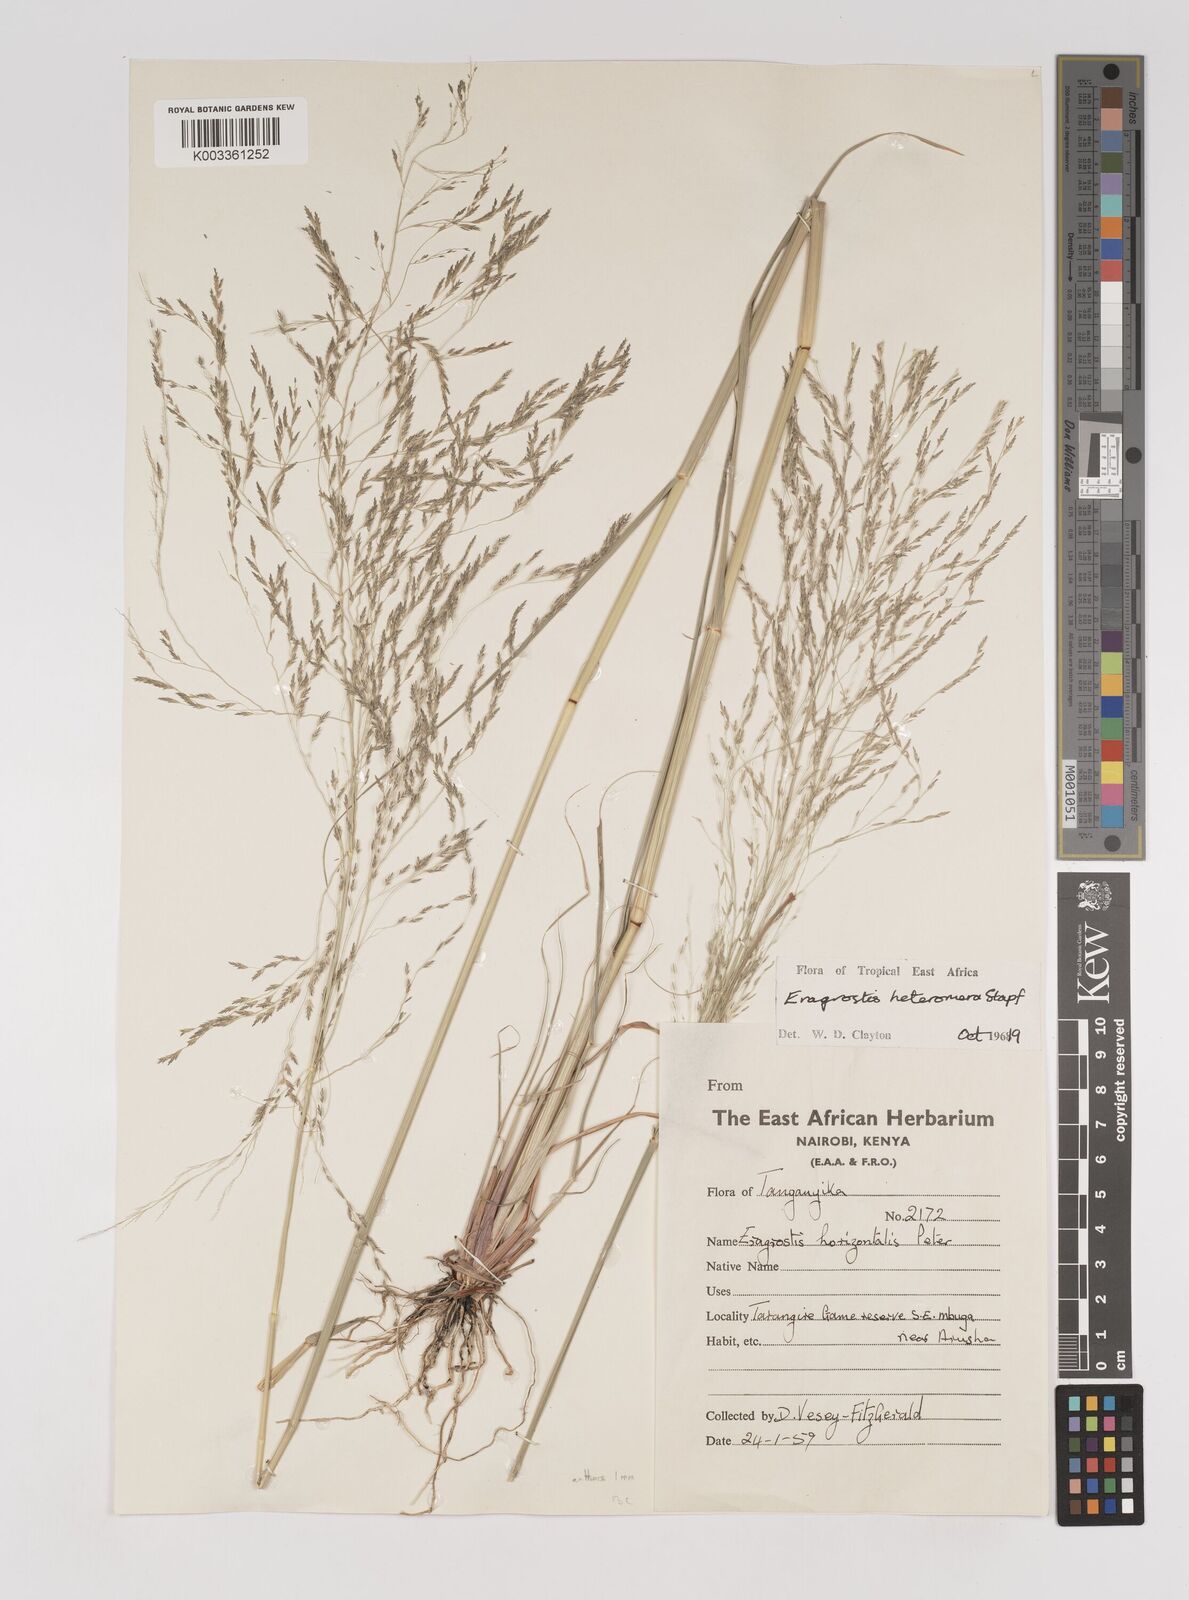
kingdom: Plantae
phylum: Tracheophyta
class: Liliopsida
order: Poales
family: Poaceae
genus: Eragrostis
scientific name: Eragrostis heteromera
